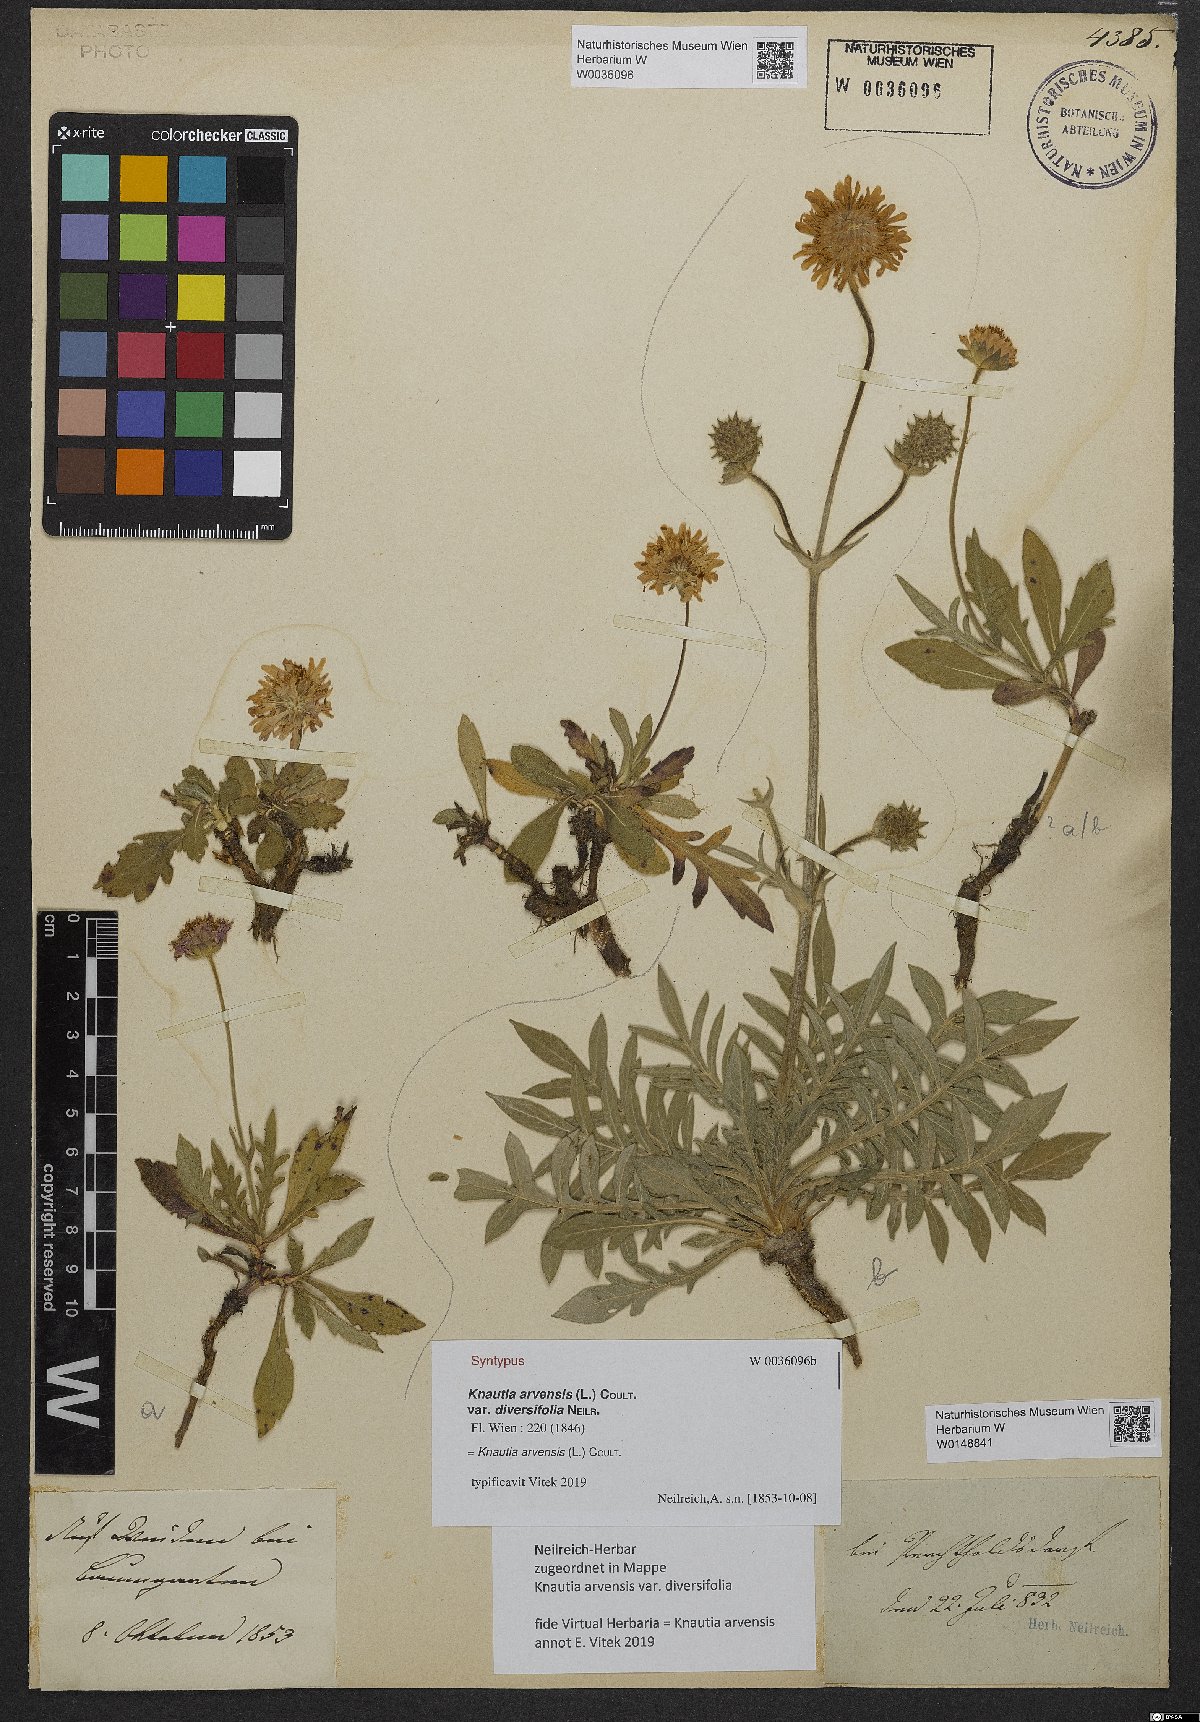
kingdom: Plantae
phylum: Tracheophyta
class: Magnoliopsida
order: Dipsacales
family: Caprifoliaceae
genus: Knautia
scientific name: Knautia arvensis
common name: Field scabiosa
